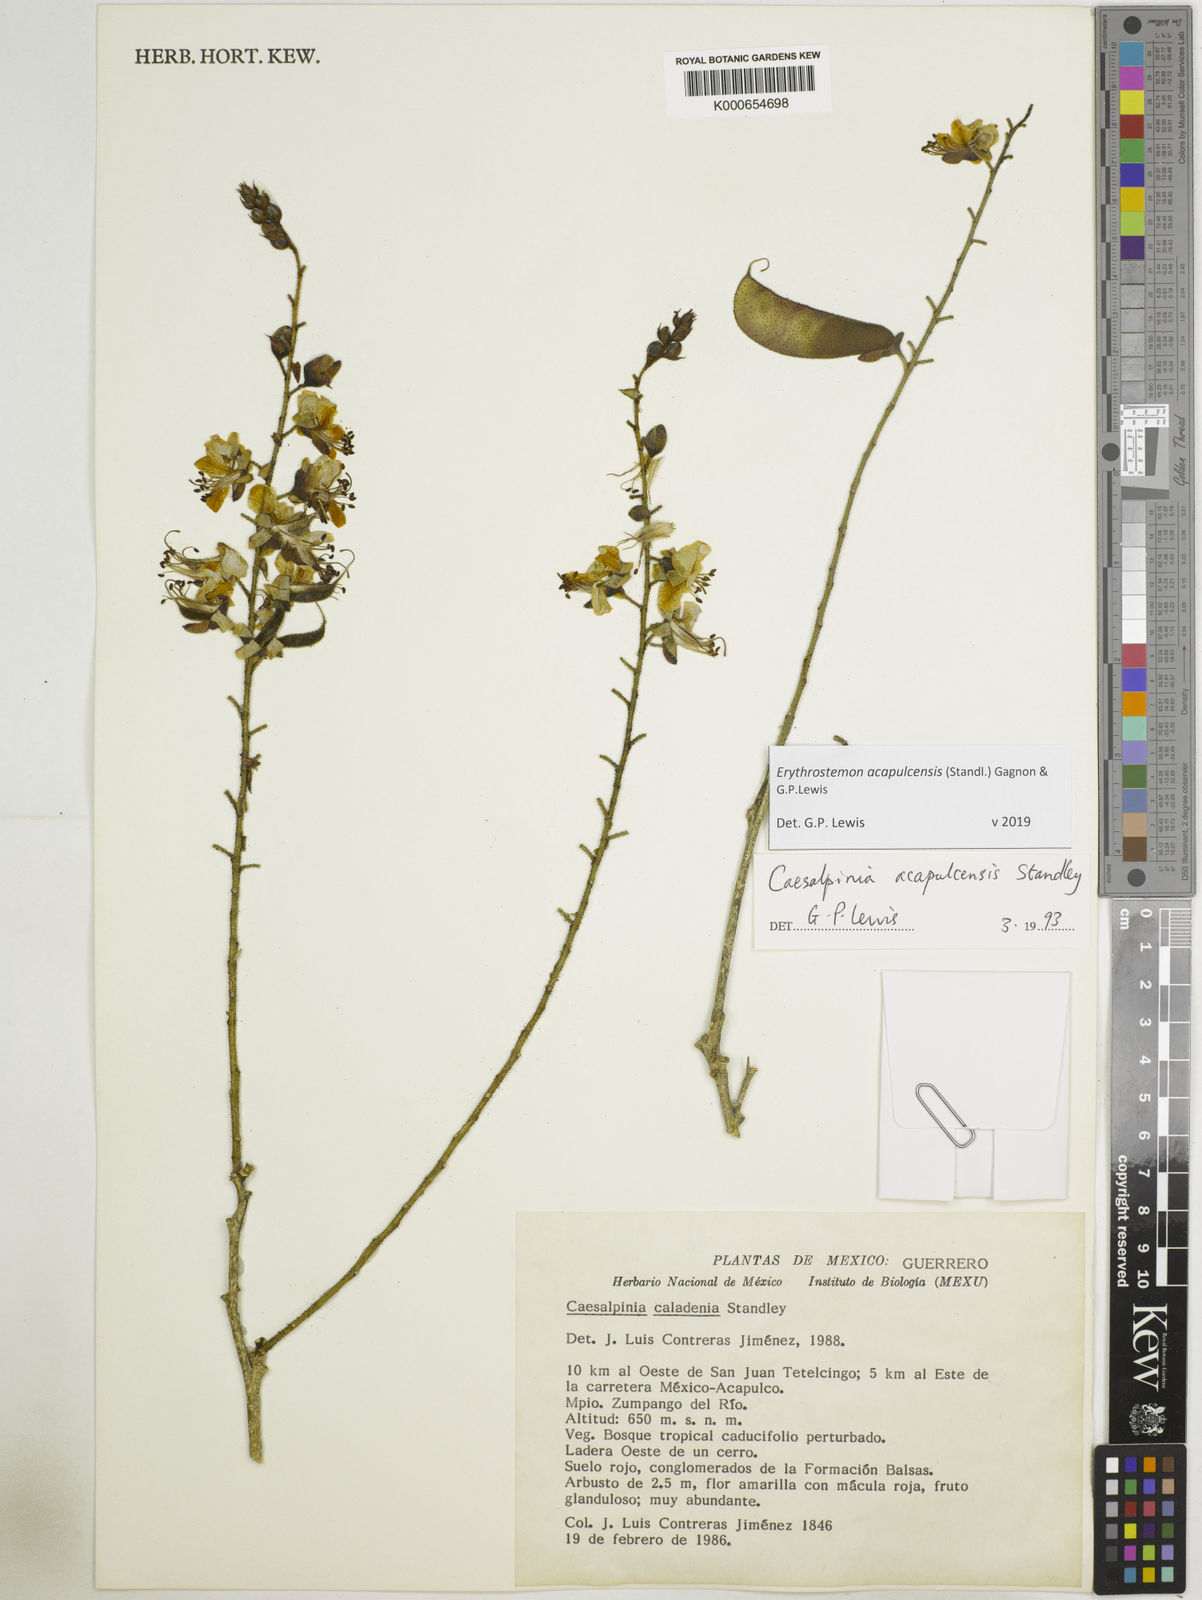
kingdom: Plantae
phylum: Tracheophyta
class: Magnoliopsida
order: Fabales
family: Fabaceae
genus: Erythrostemon
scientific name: Erythrostemon acapulcensis
